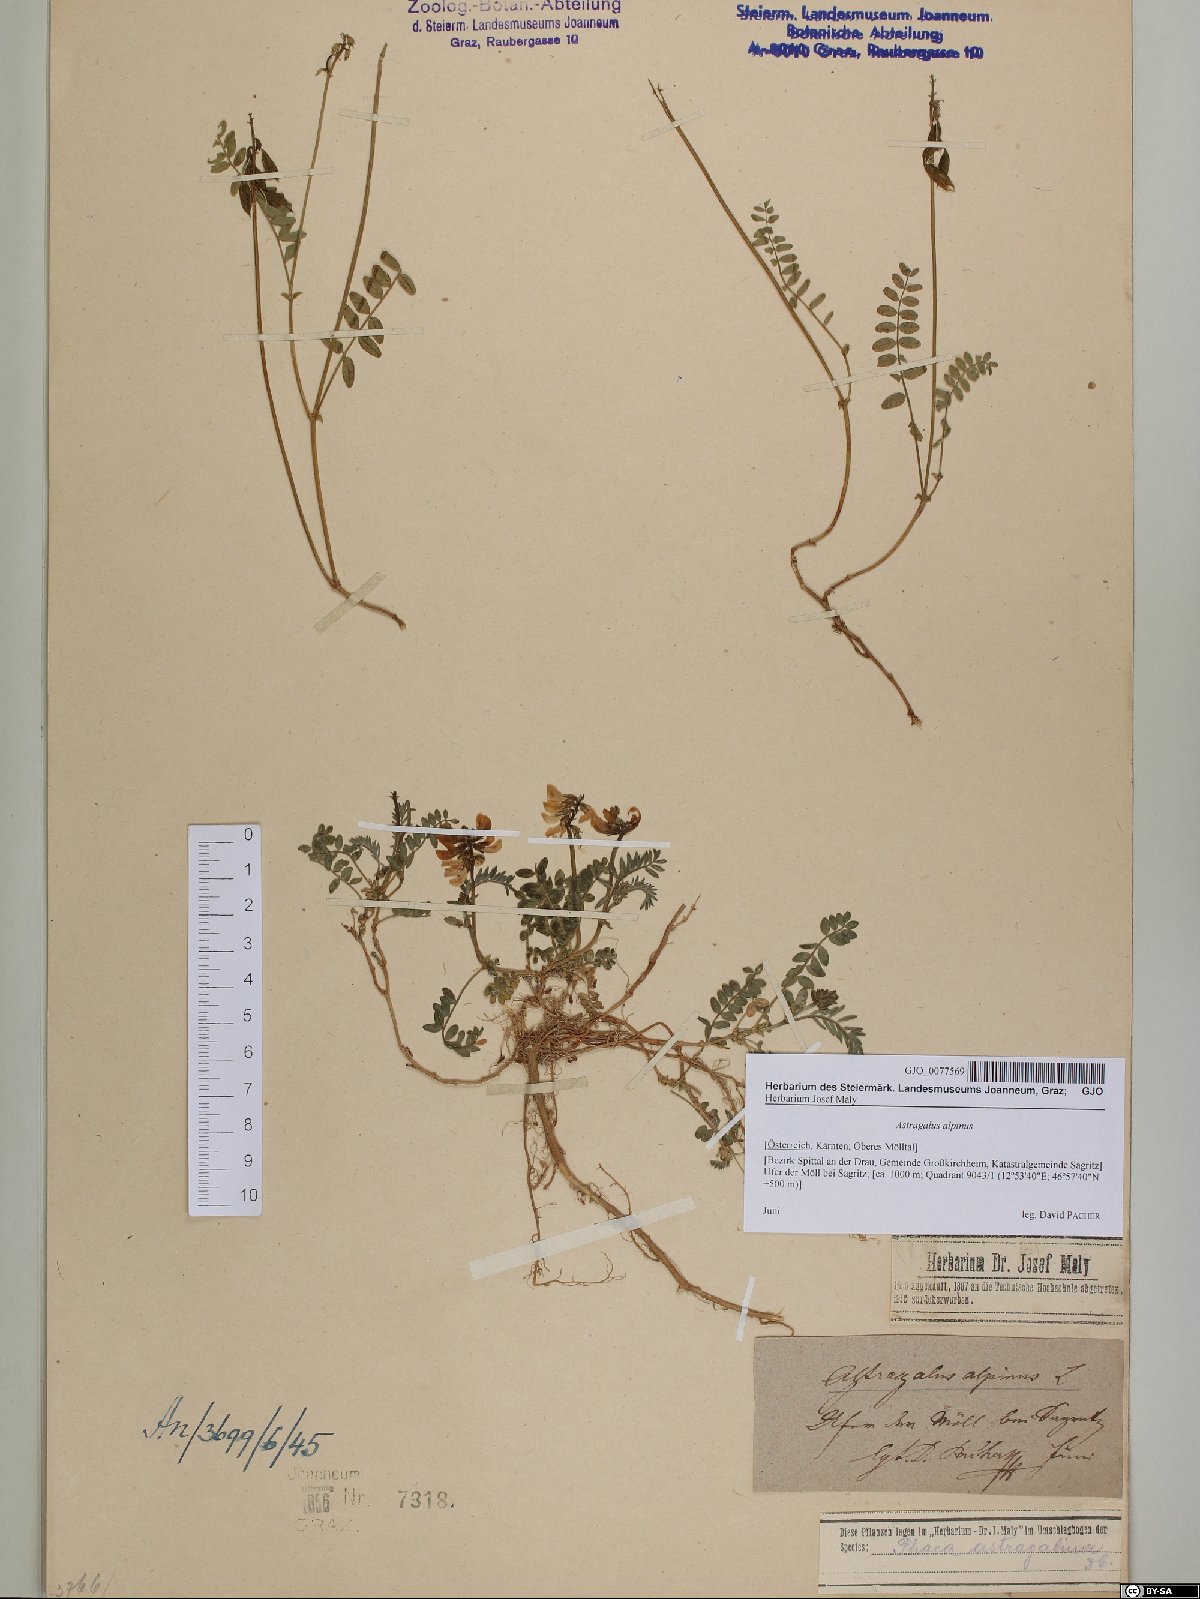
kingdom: Plantae
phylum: Tracheophyta
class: Magnoliopsida
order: Fabales
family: Fabaceae
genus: Astragalus
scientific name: Astragalus alpinus
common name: Alpine milk-vetch
